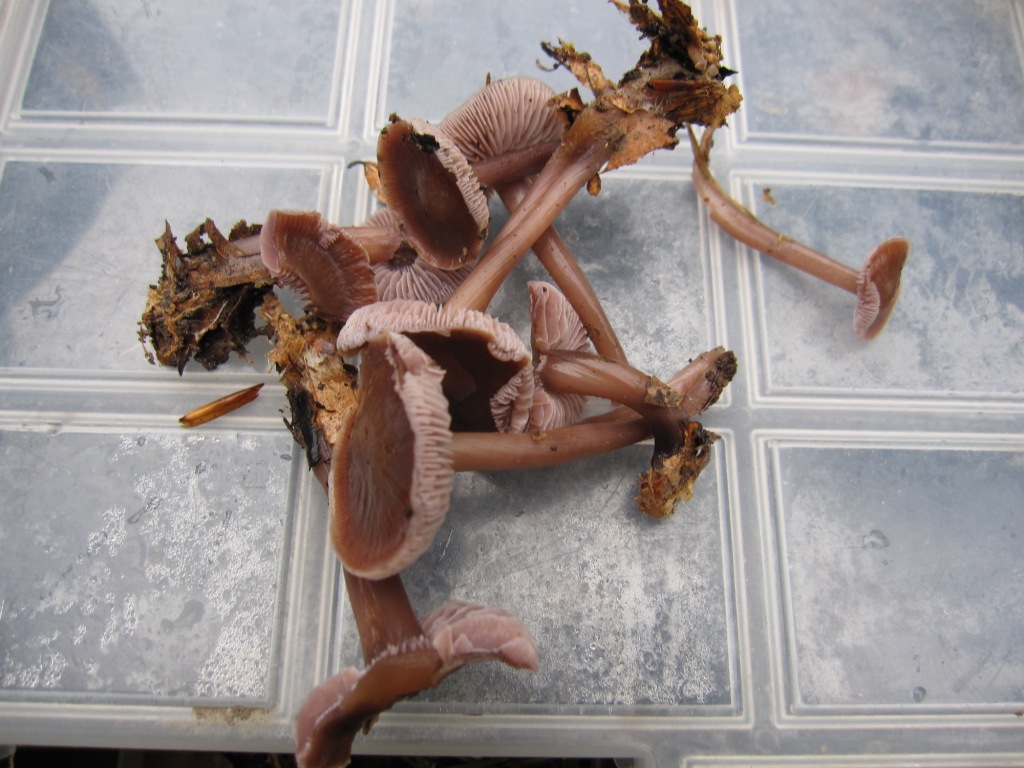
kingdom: Fungi
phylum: Basidiomycota
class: Agaricomycetes
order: Agaricales
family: Mycenaceae
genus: Prunulus
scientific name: Prunulus diosmus
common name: tobaks-huesvamp
